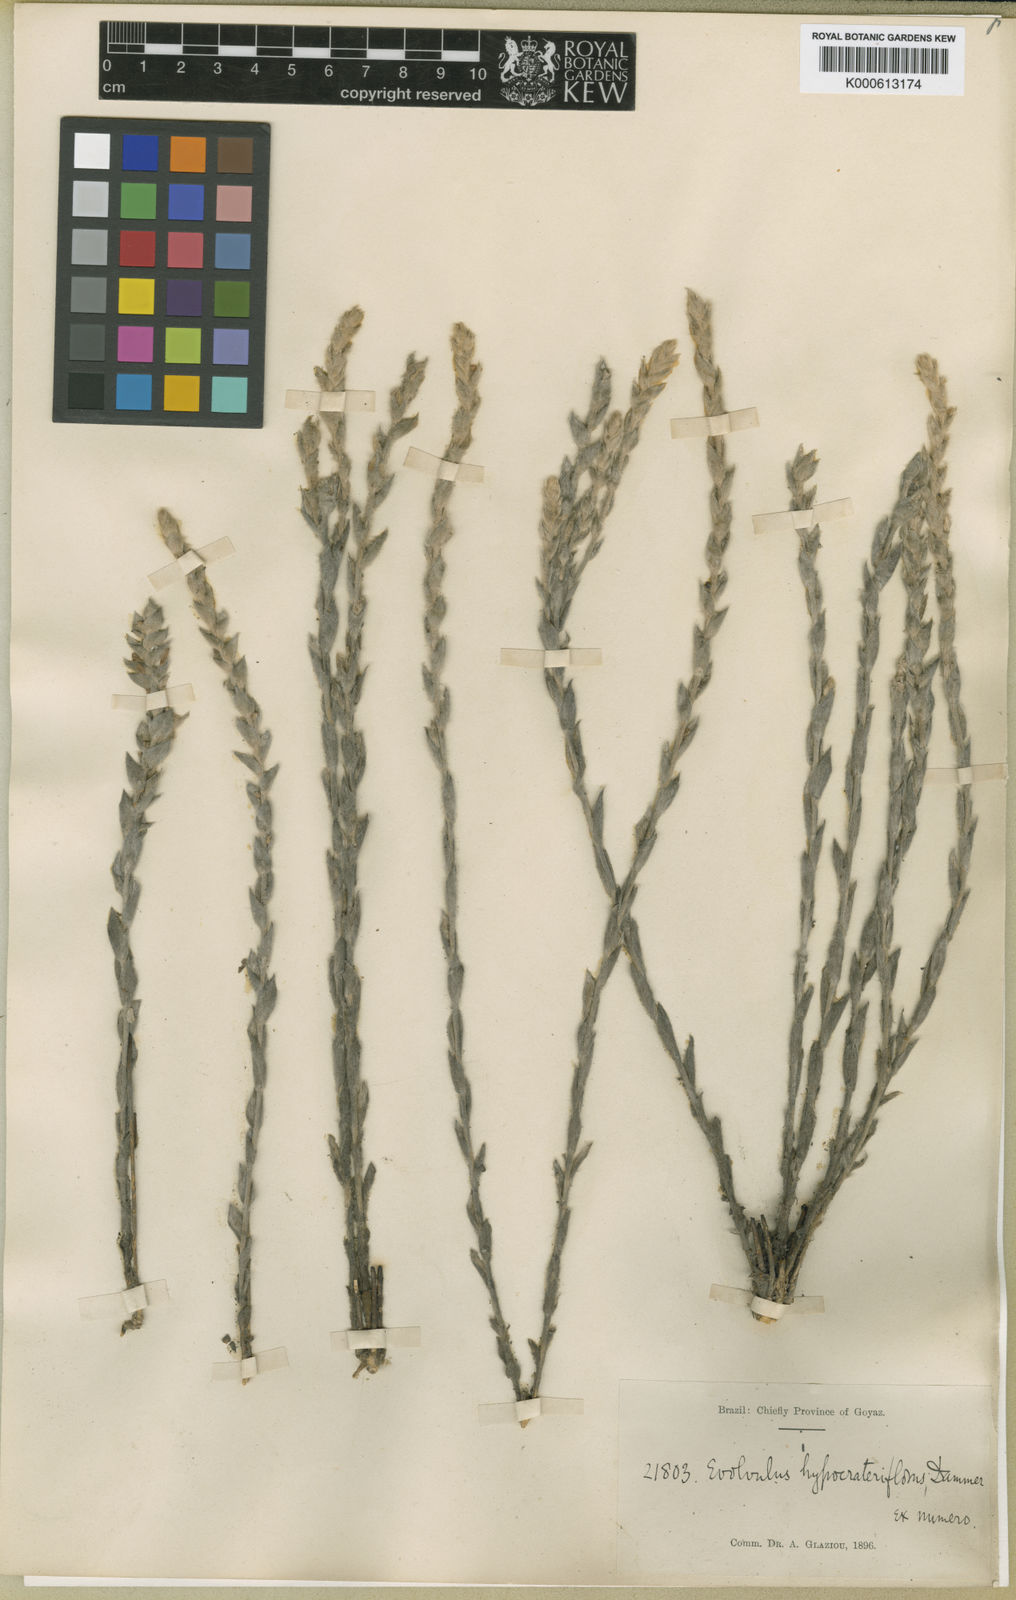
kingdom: Plantae
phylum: Tracheophyta
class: Magnoliopsida
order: Solanales
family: Convolvulaceae
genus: Evolvulus
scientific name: Evolvulus hypocrateriflorus
